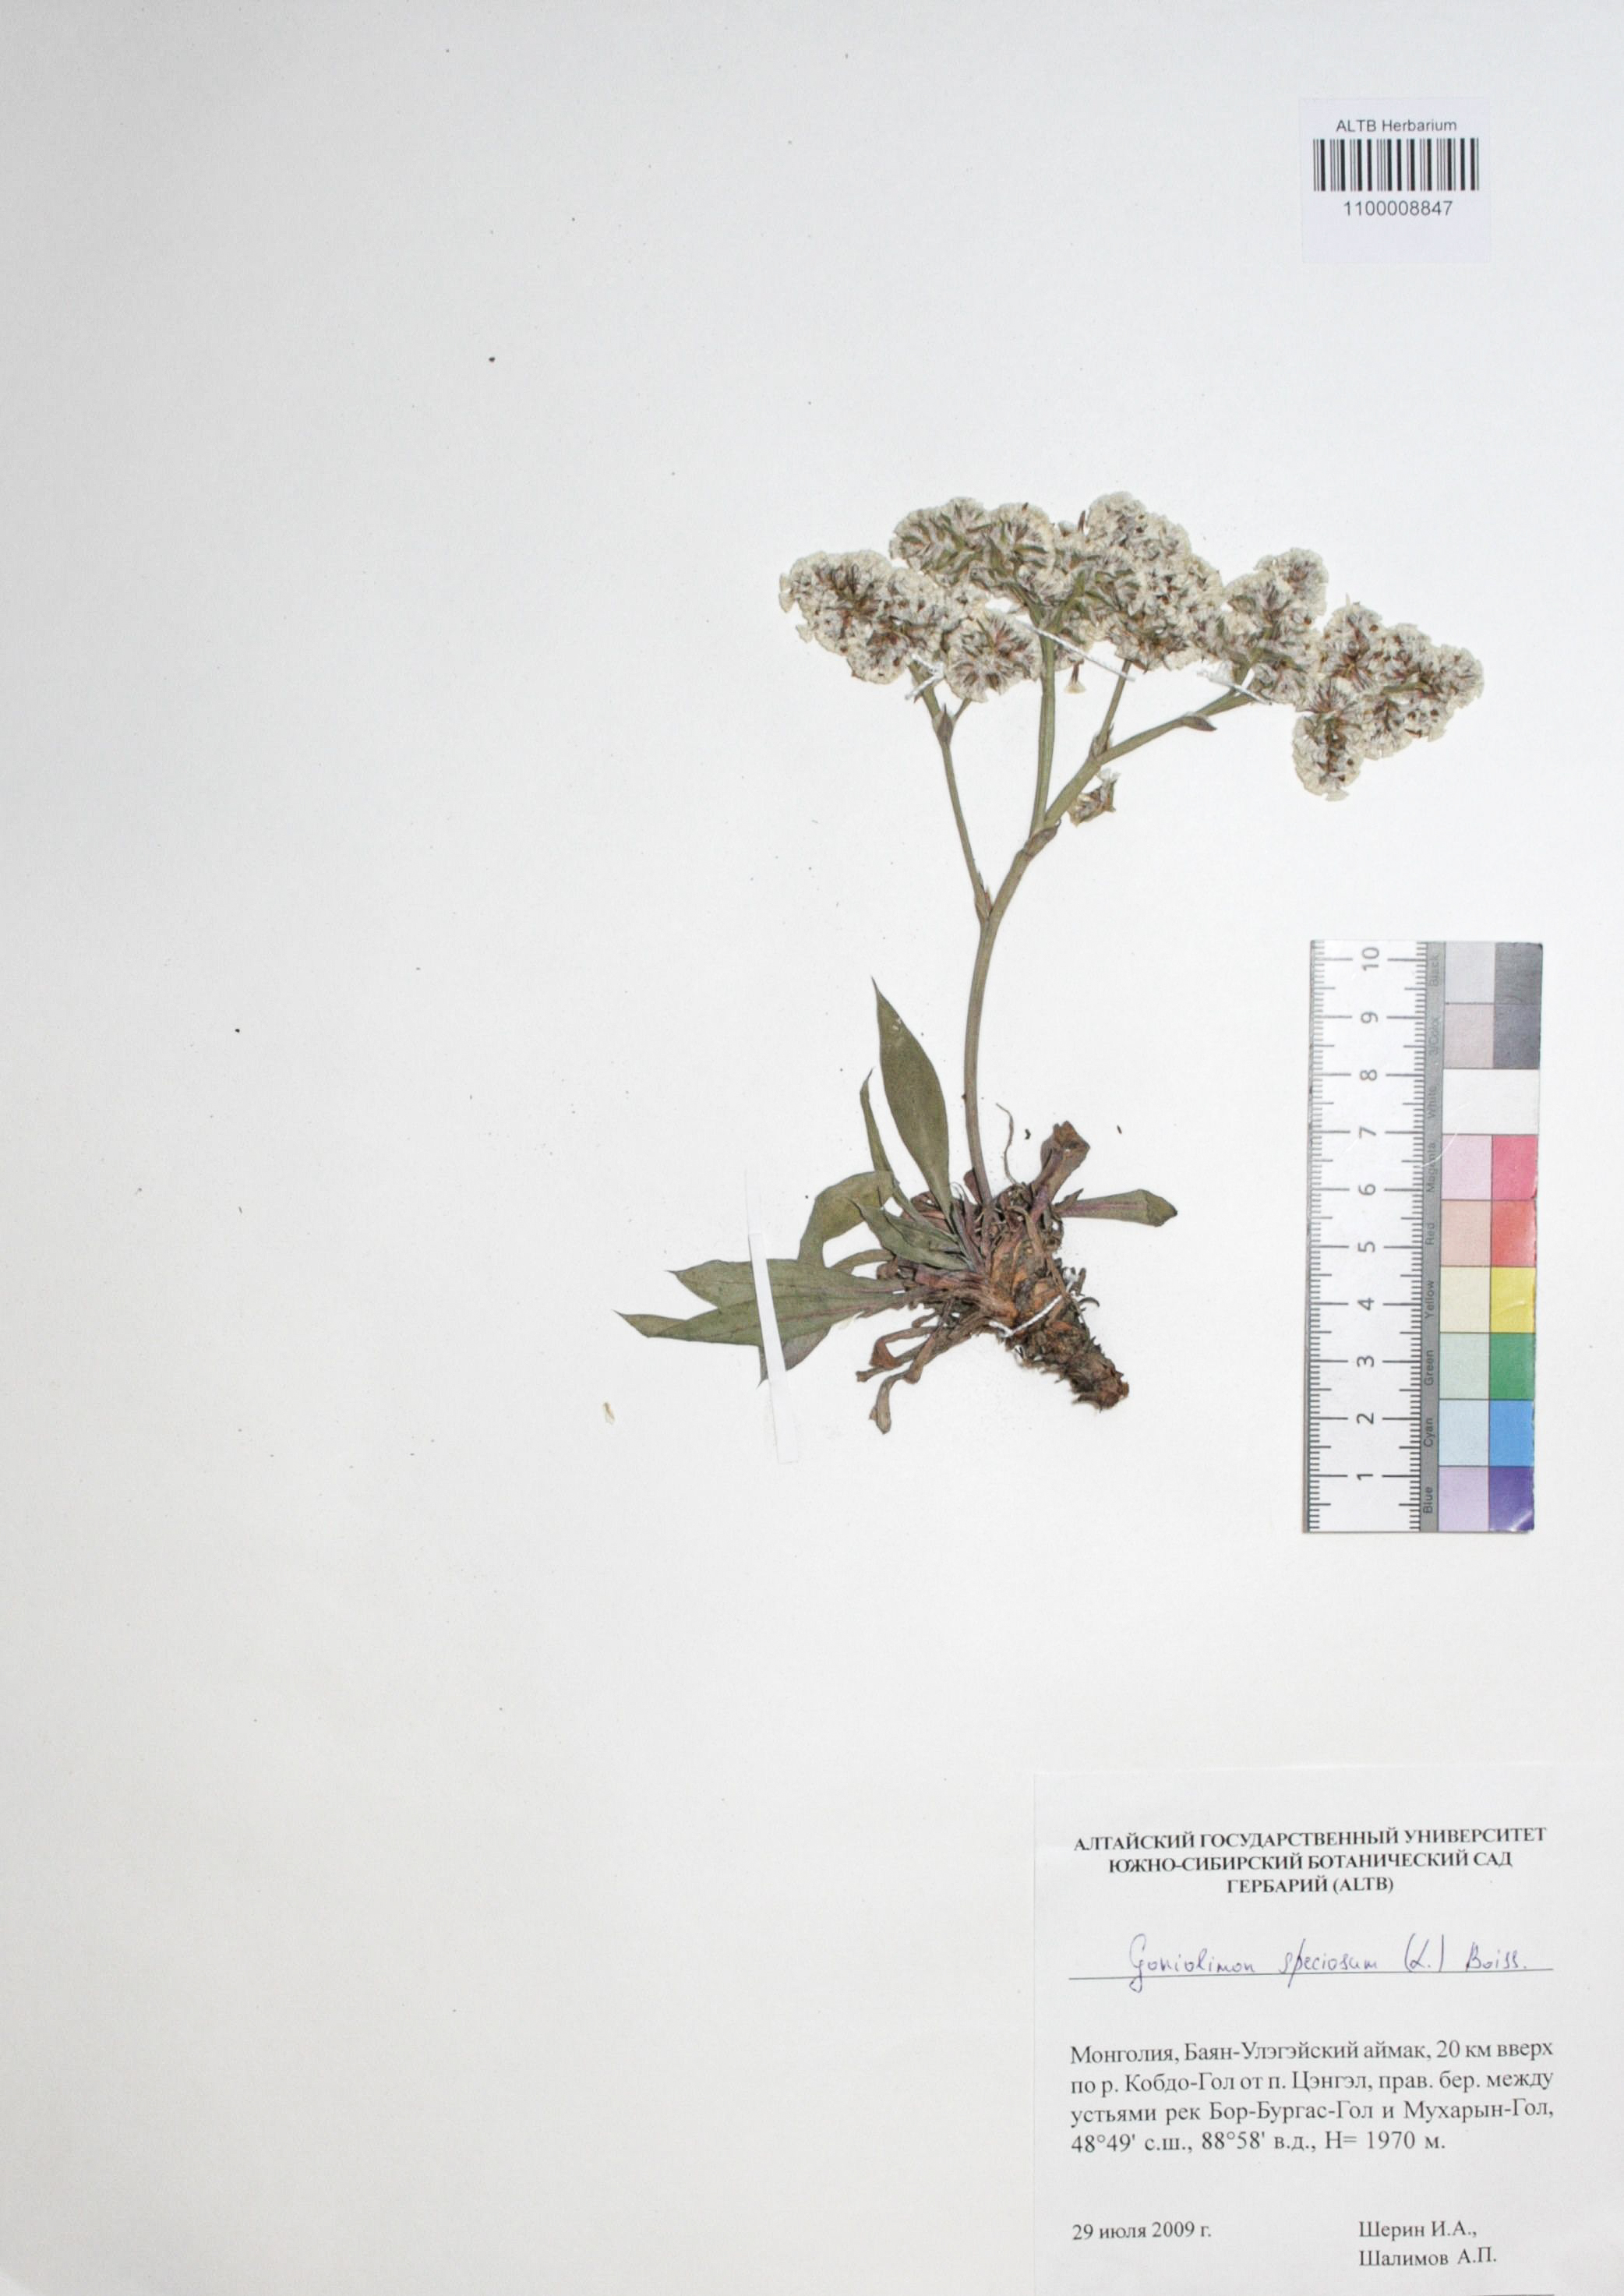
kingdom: Plantae
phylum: Tracheophyta
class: Magnoliopsida
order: Caryophyllales
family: Plumbaginaceae
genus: Goniolimon
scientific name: Goniolimon speciosum
